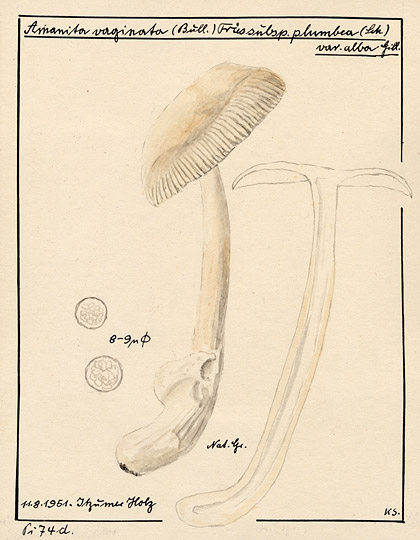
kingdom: Fungi
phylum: Basidiomycota
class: Agaricomycetes
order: Agaricales
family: Amanitaceae
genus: Amanita
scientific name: Amanita vaginata
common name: Grisette
